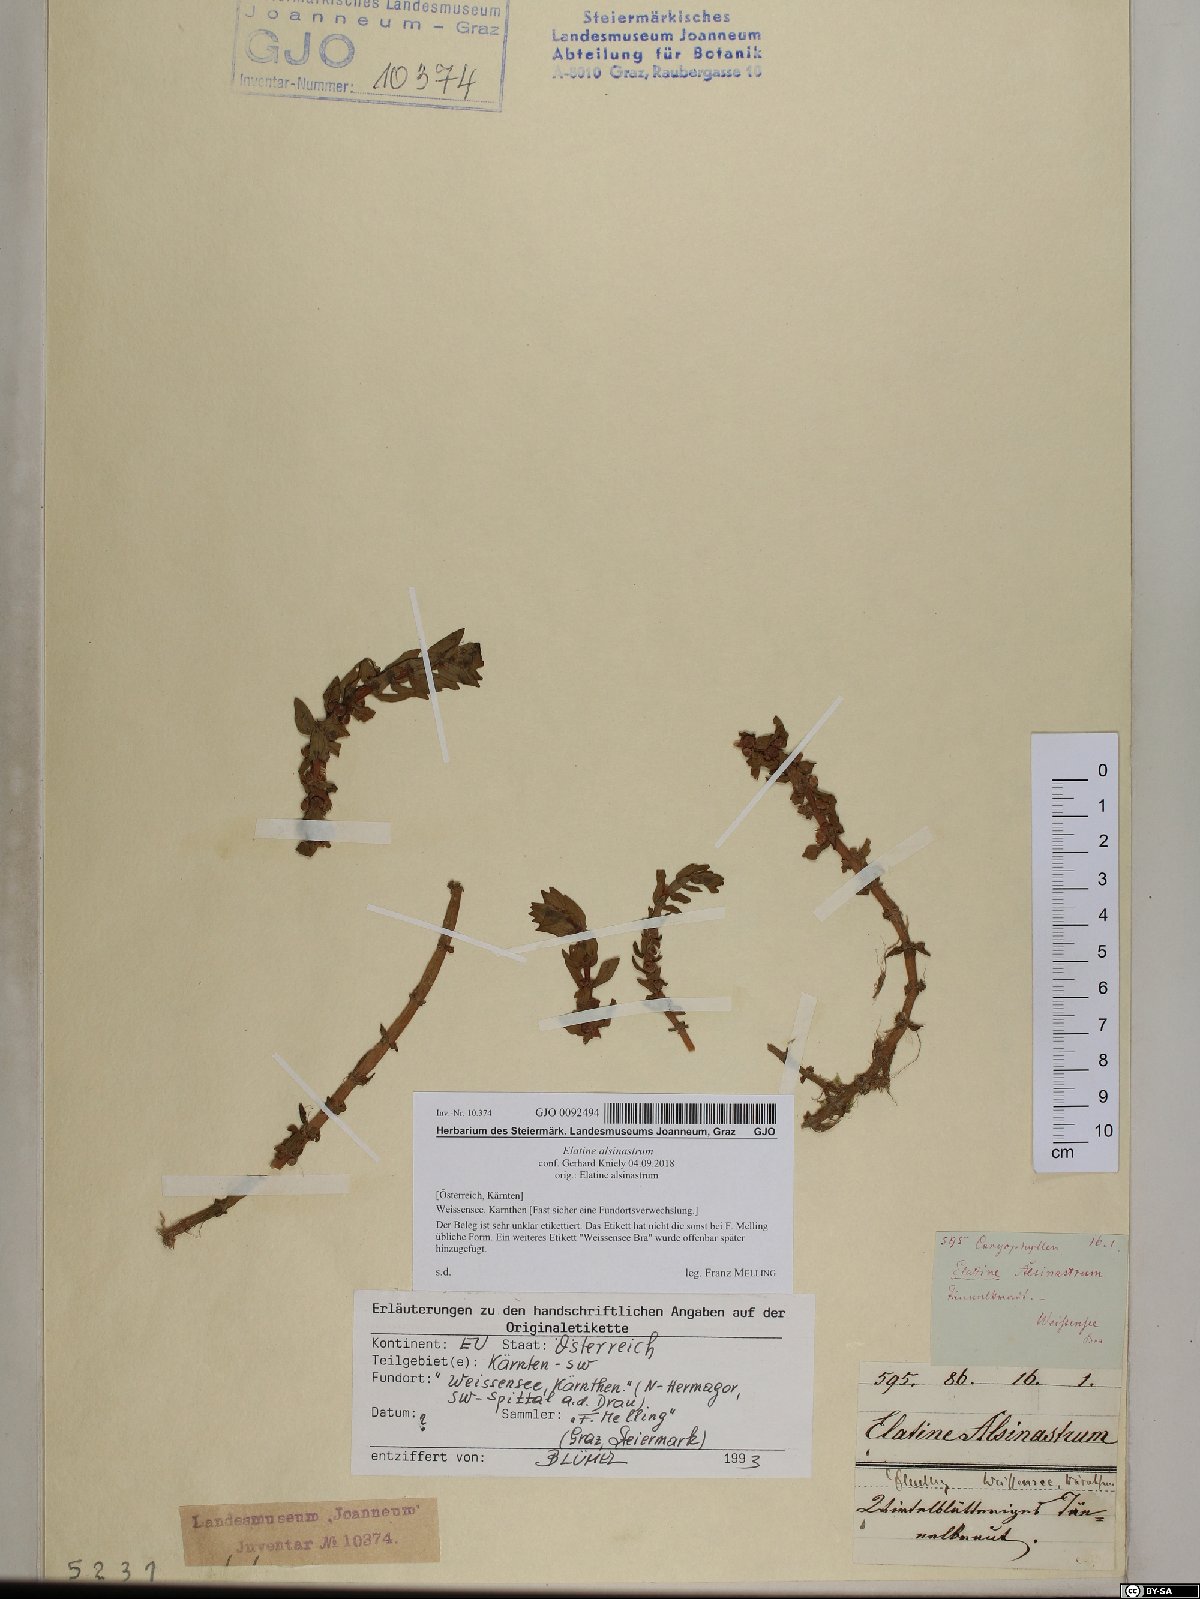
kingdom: Plantae
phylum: Tracheophyta
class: Magnoliopsida
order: Malpighiales
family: Elatinaceae
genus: Elatine
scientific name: Elatine alsinastrum
